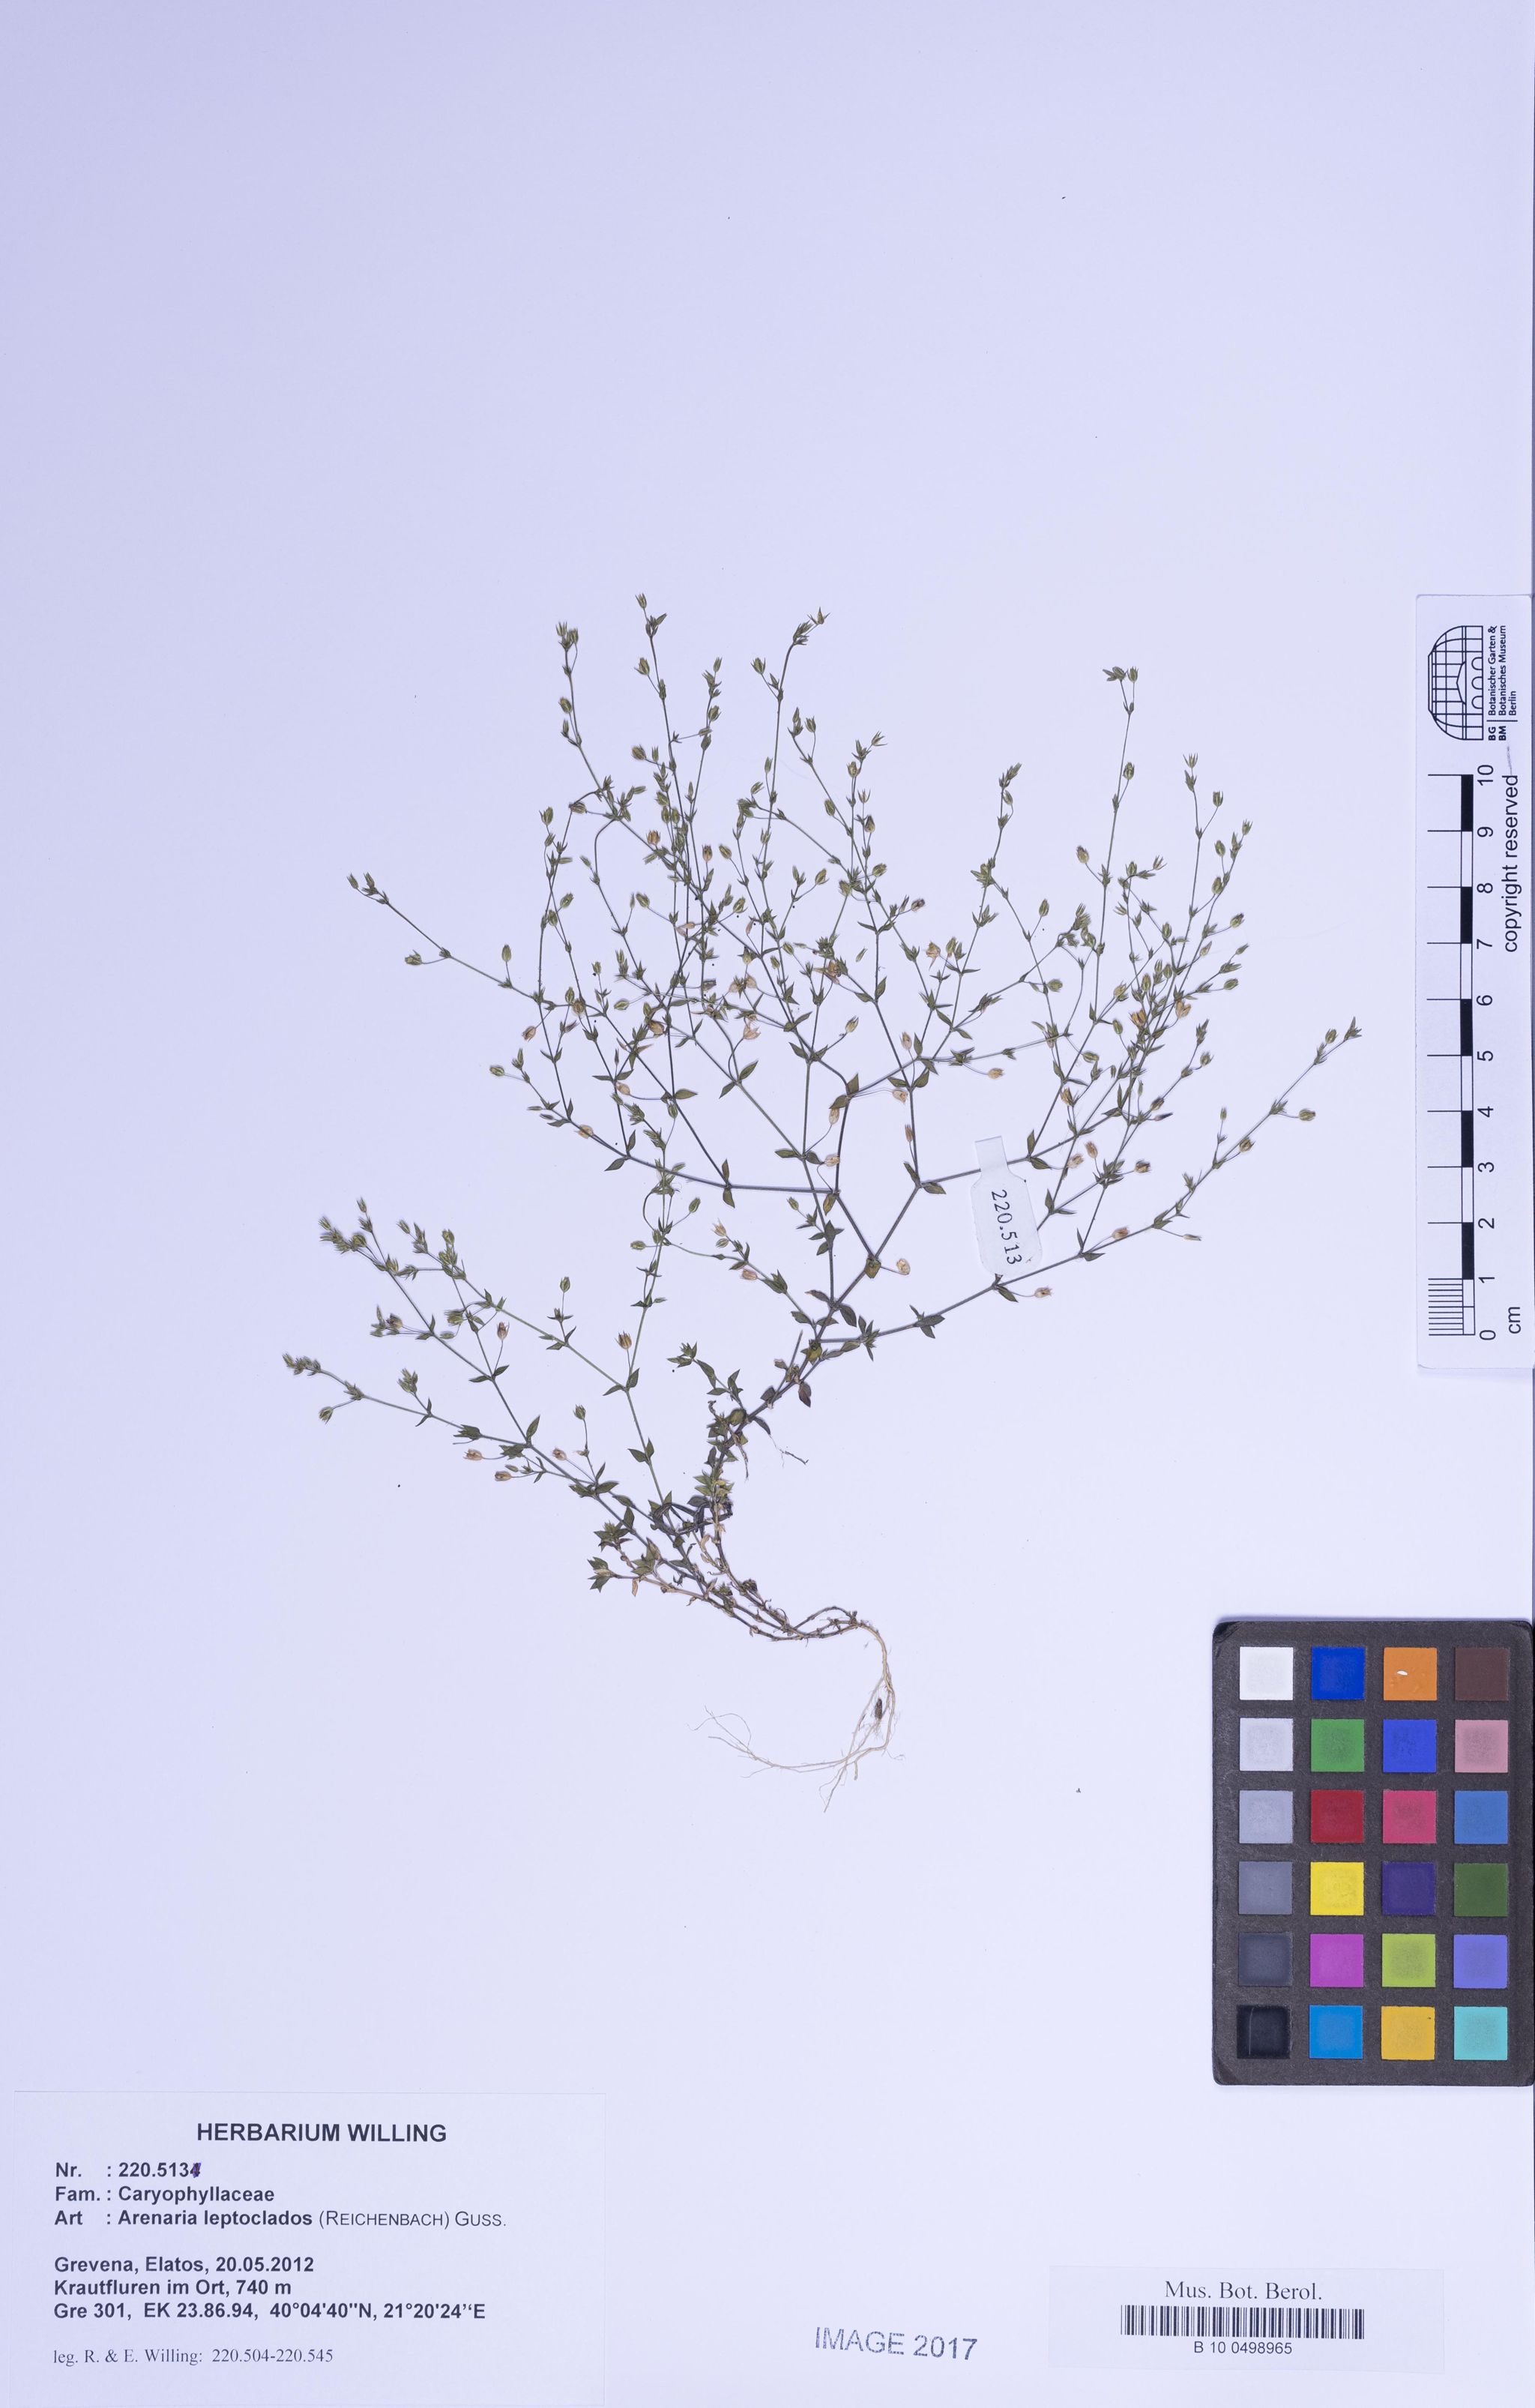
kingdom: Plantae
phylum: Tracheophyta
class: Magnoliopsida
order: Caryophyllales
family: Caryophyllaceae
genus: Arenaria
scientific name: Arenaria leptoclados
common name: Thyme-leaved sandwort
